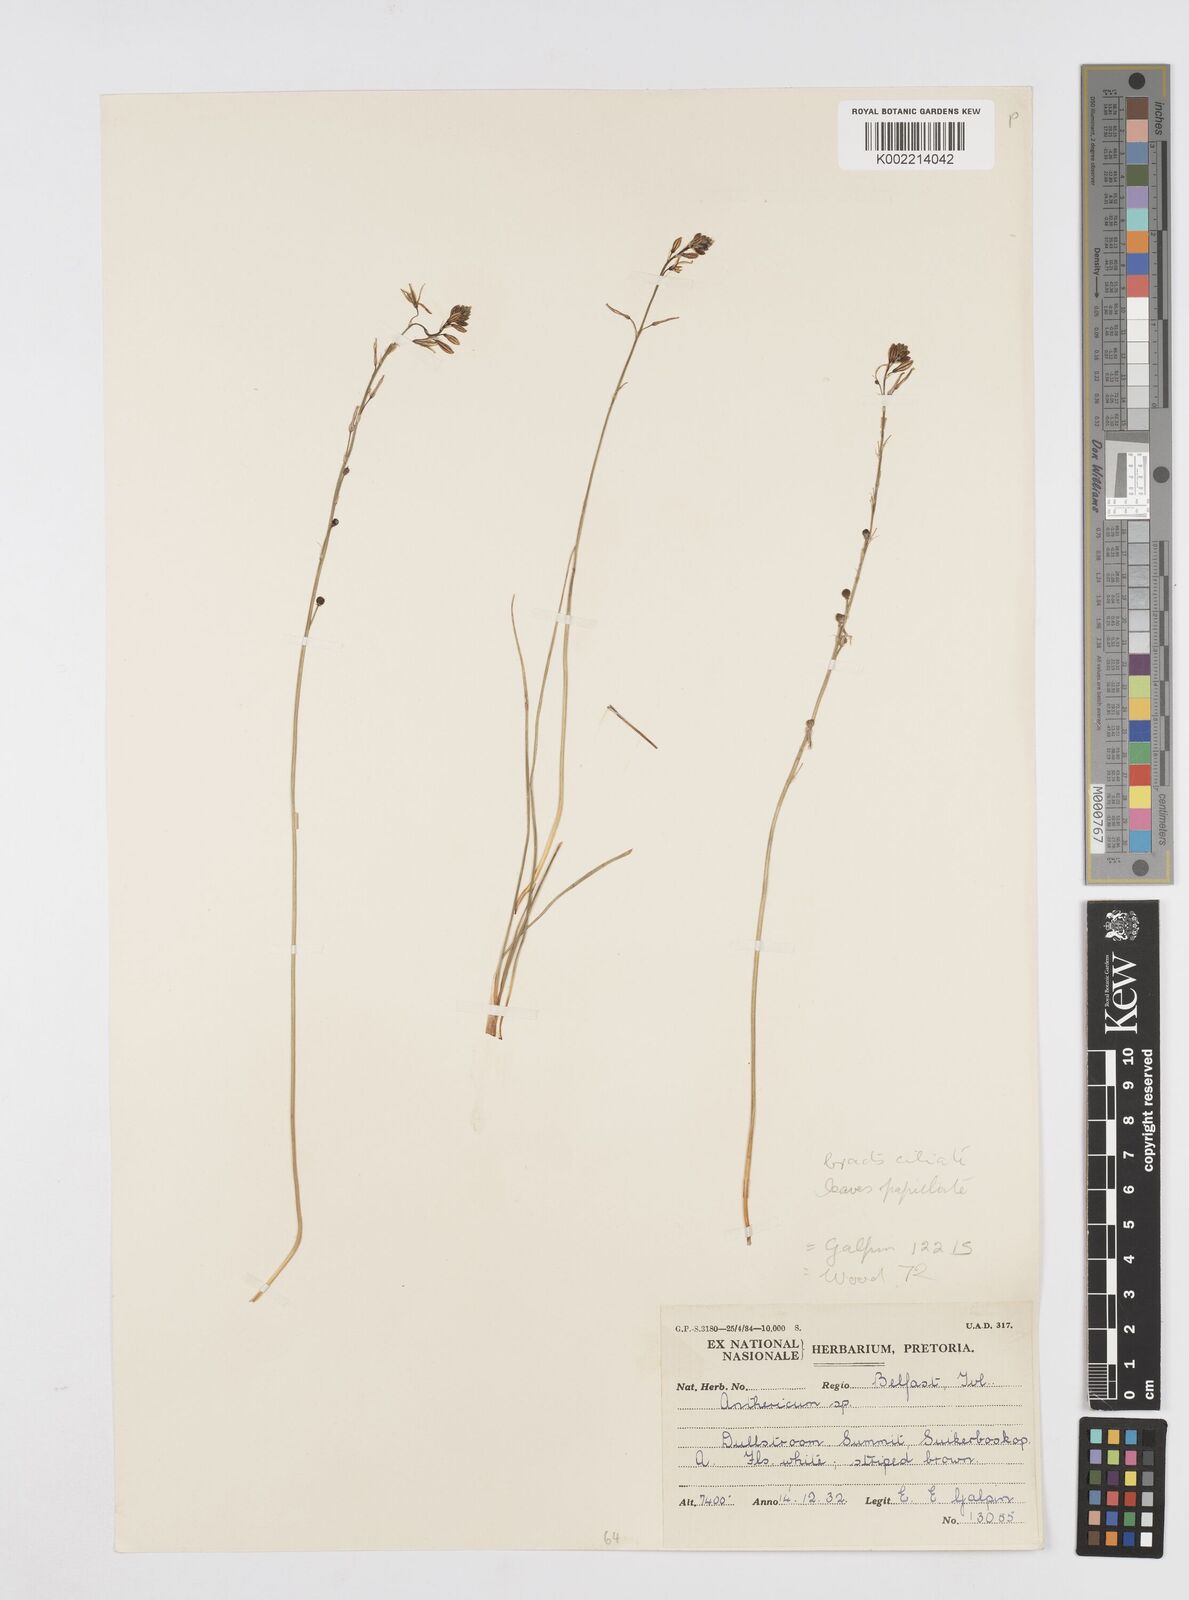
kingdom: Plantae
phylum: Tracheophyta
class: Liliopsida
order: Asparagales
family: Asphodelaceae
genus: Trachyandra
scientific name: Trachyandra
